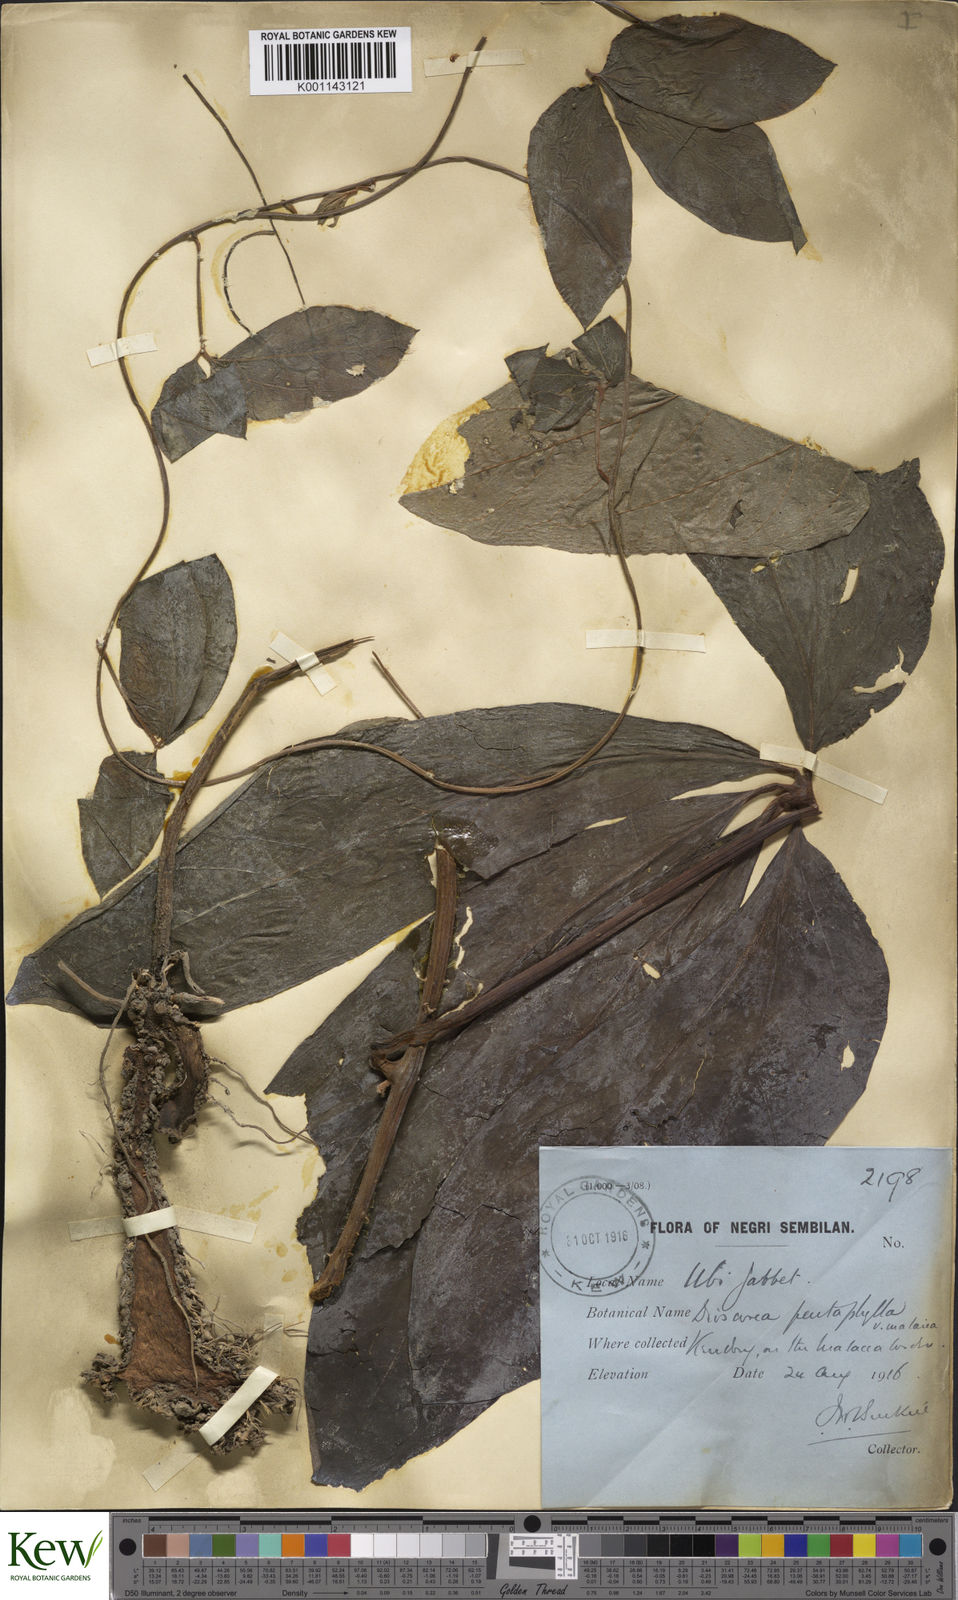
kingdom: Plantae
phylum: Tracheophyta
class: Liliopsida
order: Dioscoreales
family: Dioscoreaceae
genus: Dioscorea
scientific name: Dioscorea pentaphylla
